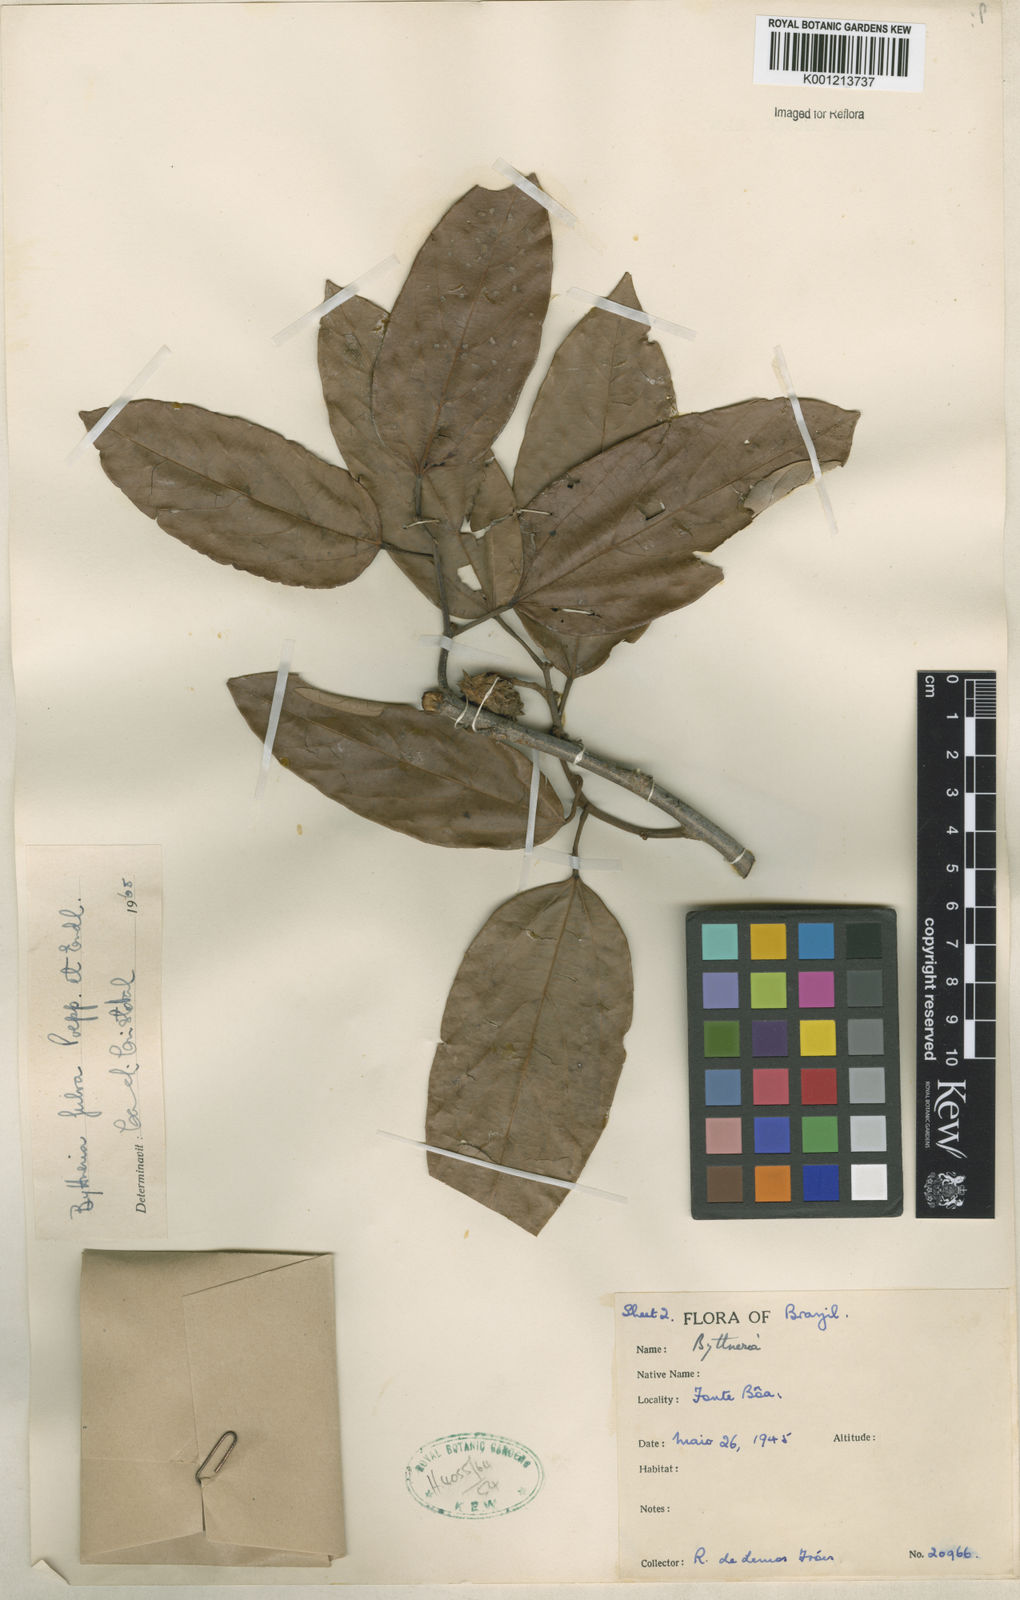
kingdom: Plantae
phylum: Tracheophyta
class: Magnoliopsida
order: Malvales
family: Malvaceae
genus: Byttneria
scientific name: Byttneria fulva
